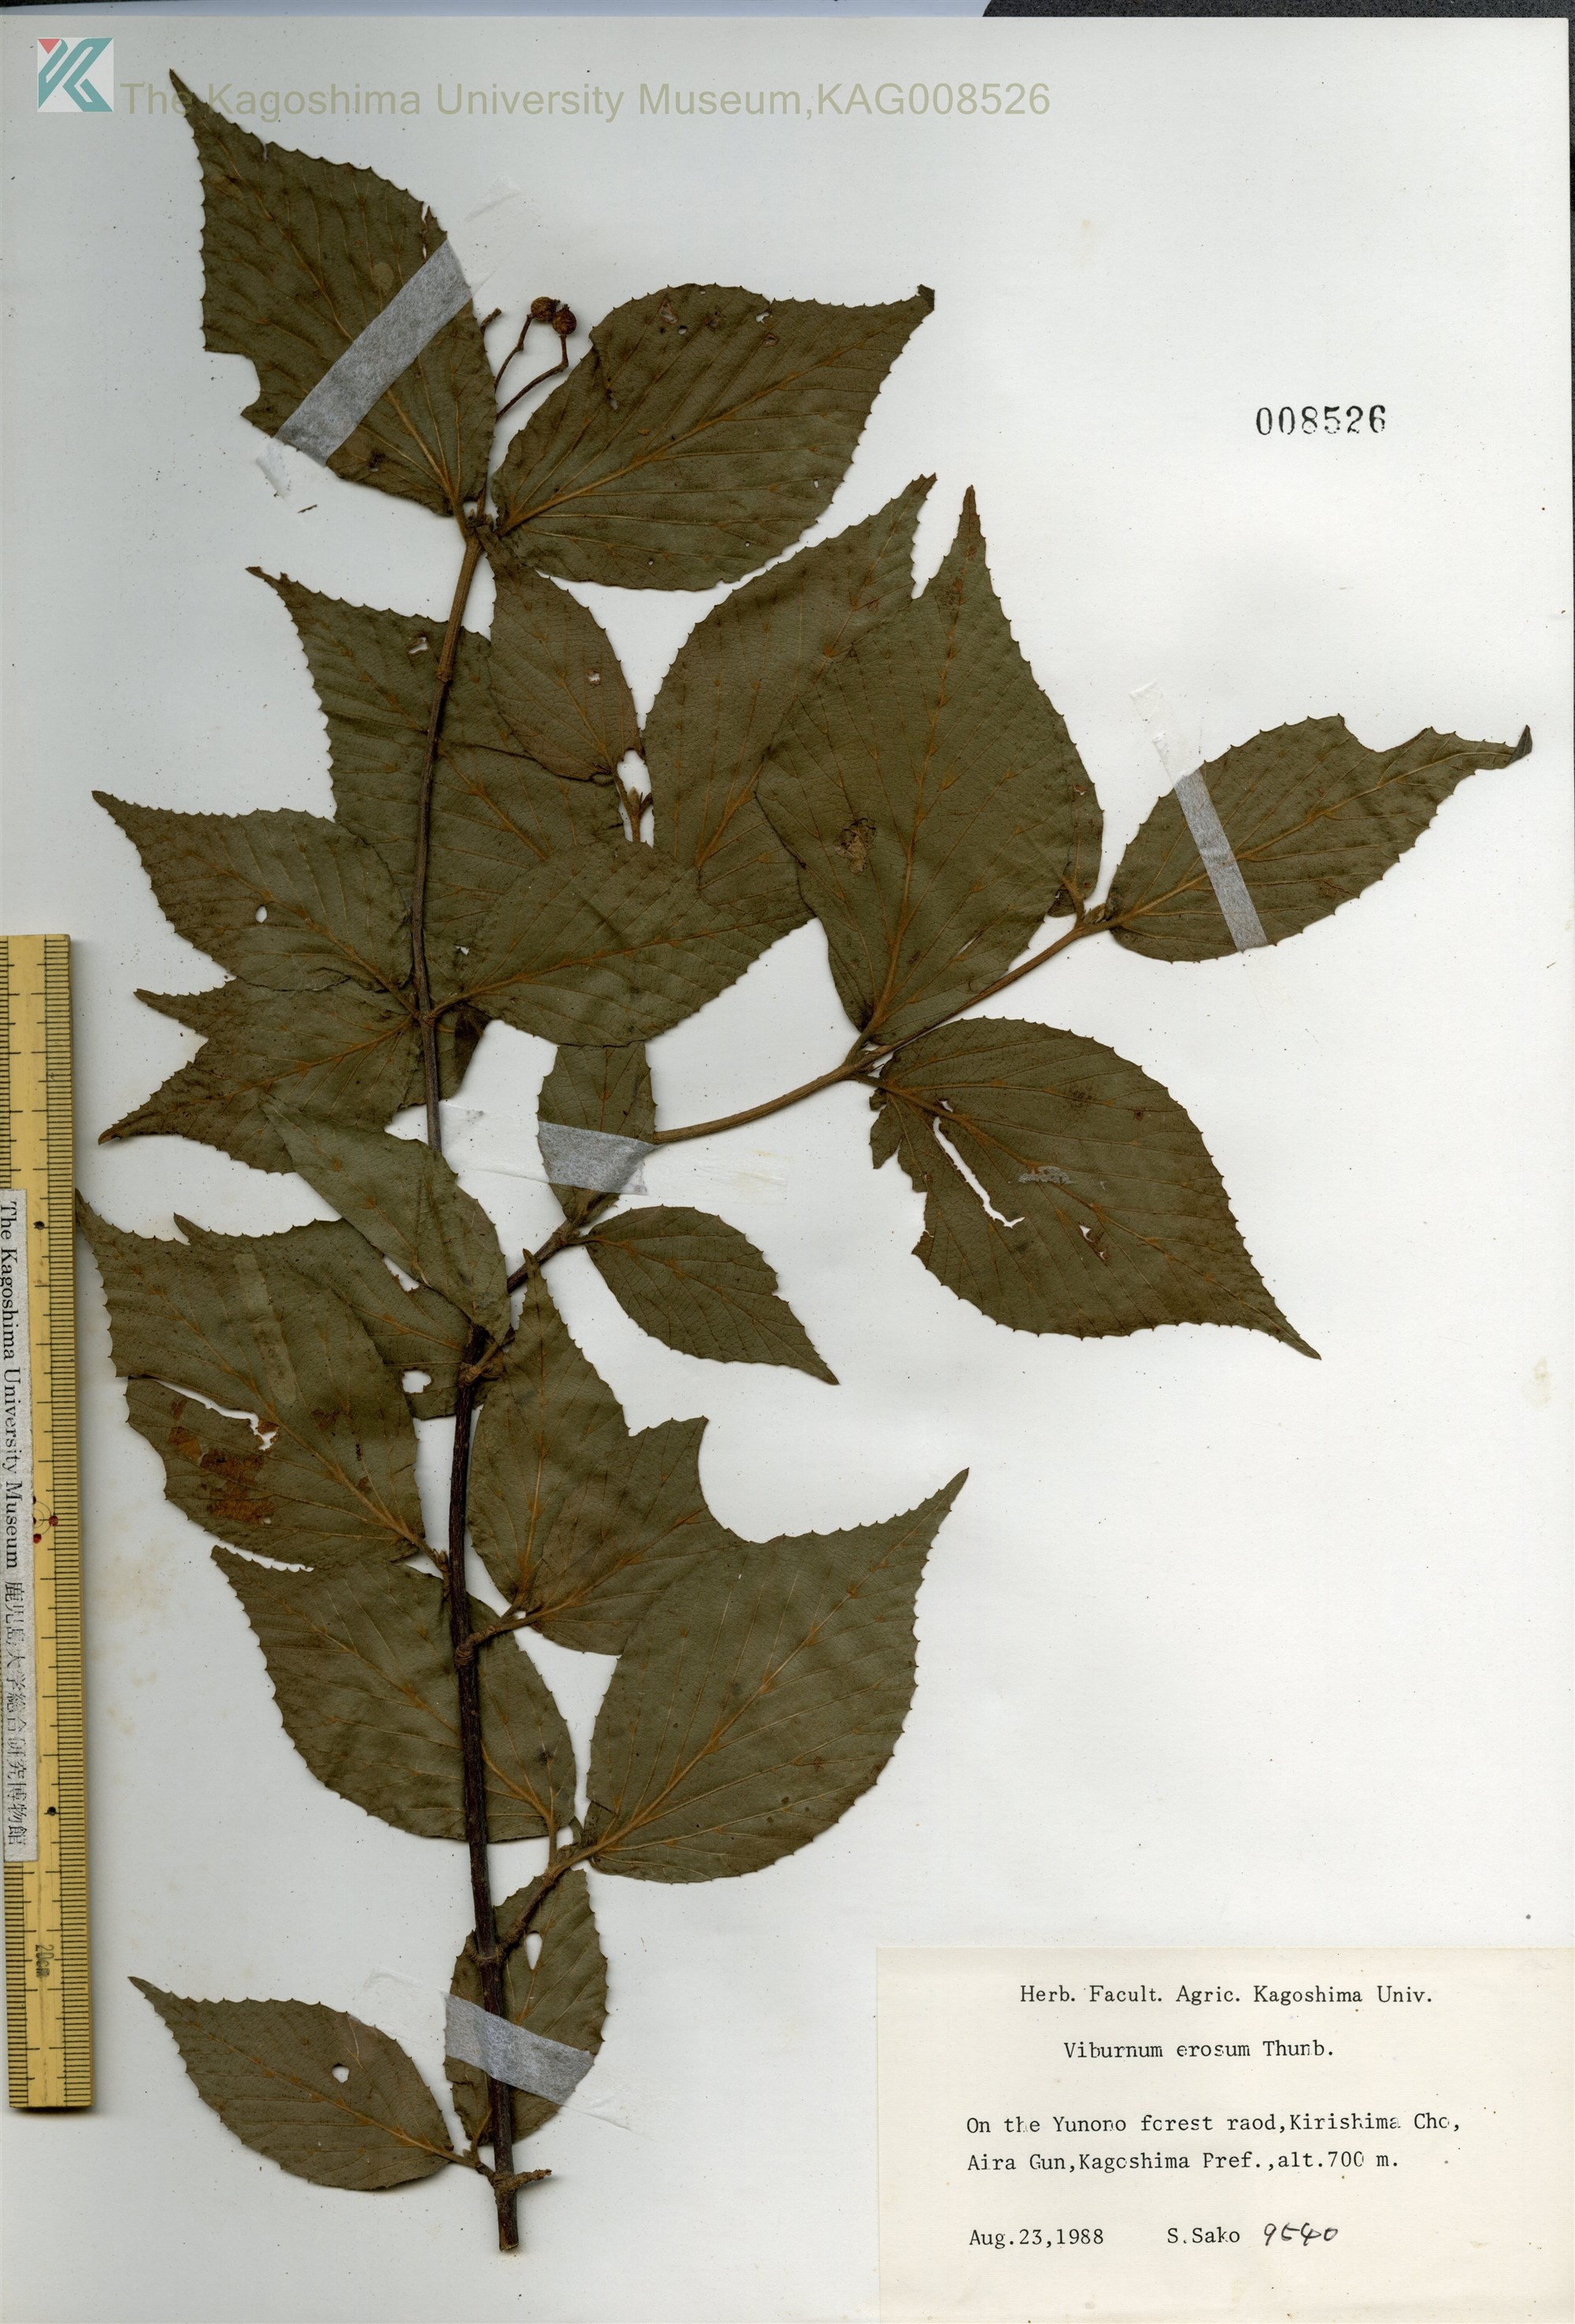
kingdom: Plantae
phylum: Tracheophyta
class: Magnoliopsida
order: Dipsacales
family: Viburnaceae
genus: Viburnum
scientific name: Viburnum erosum
